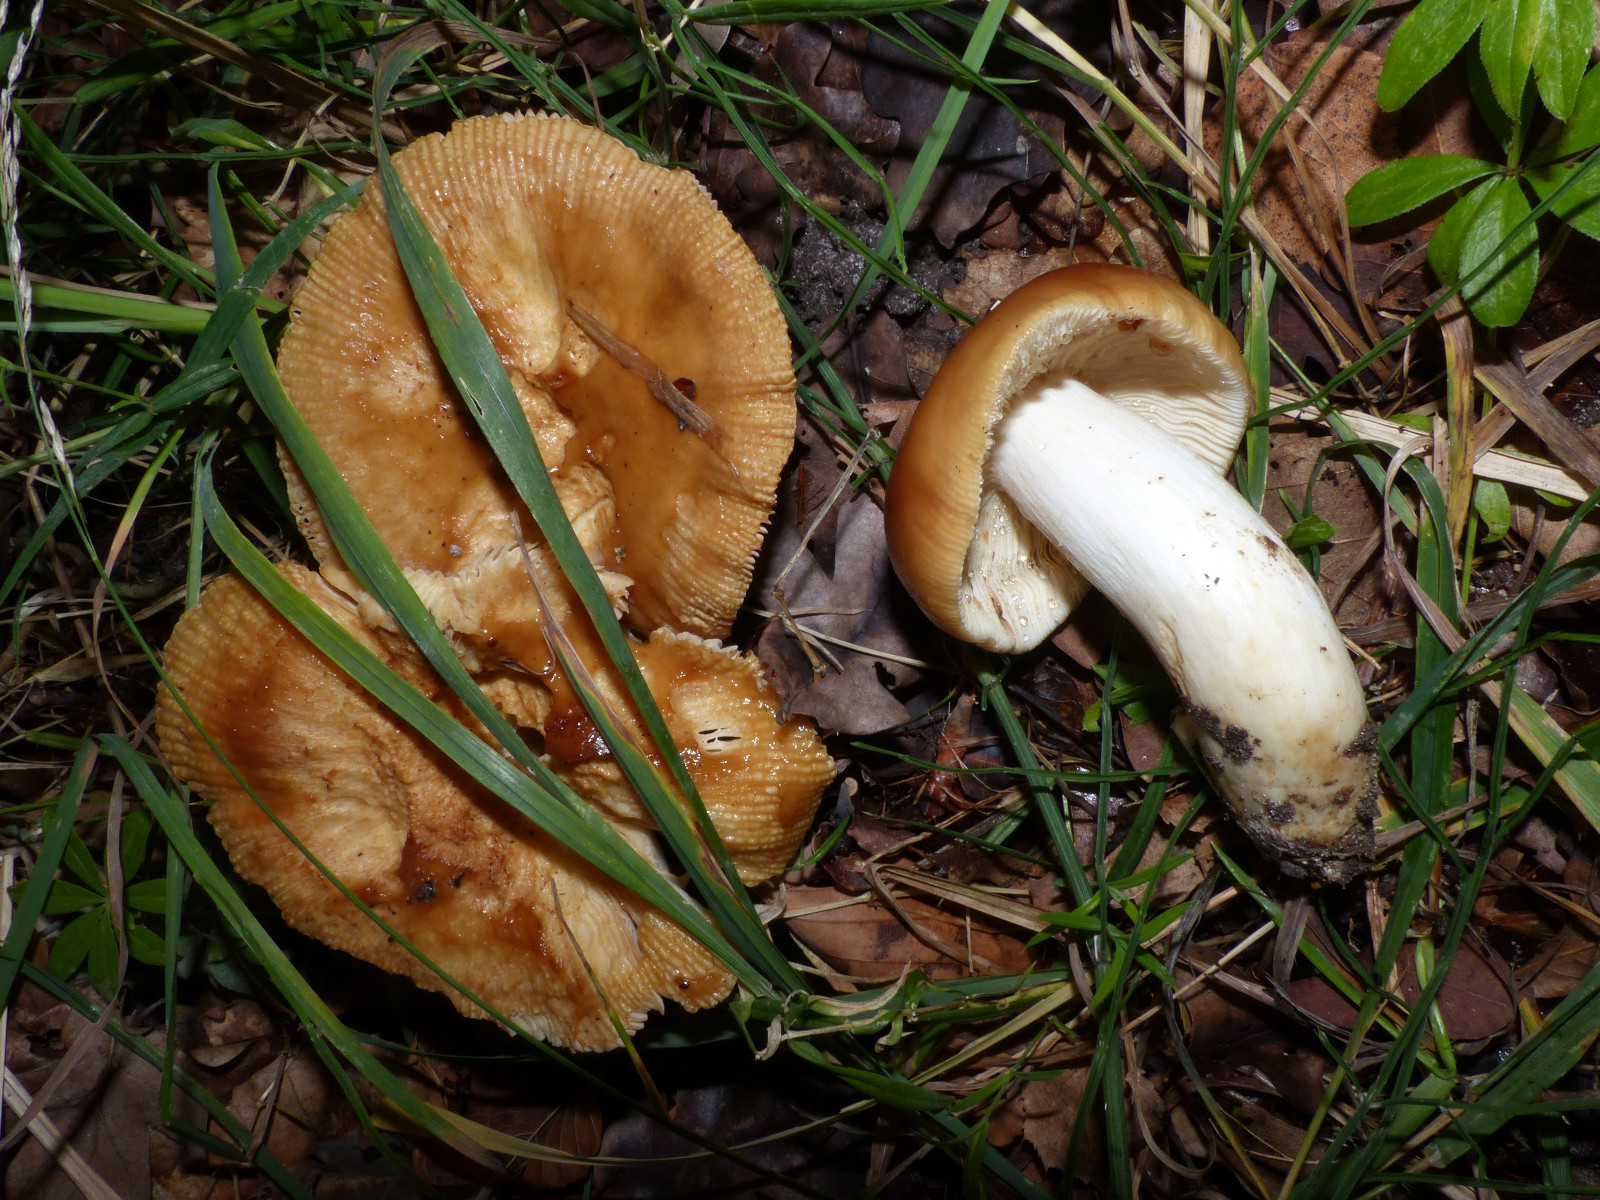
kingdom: Fungi
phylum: Basidiomycota
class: Agaricomycetes
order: Russulales
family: Russulaceae
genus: Russula
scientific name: Russula illota
